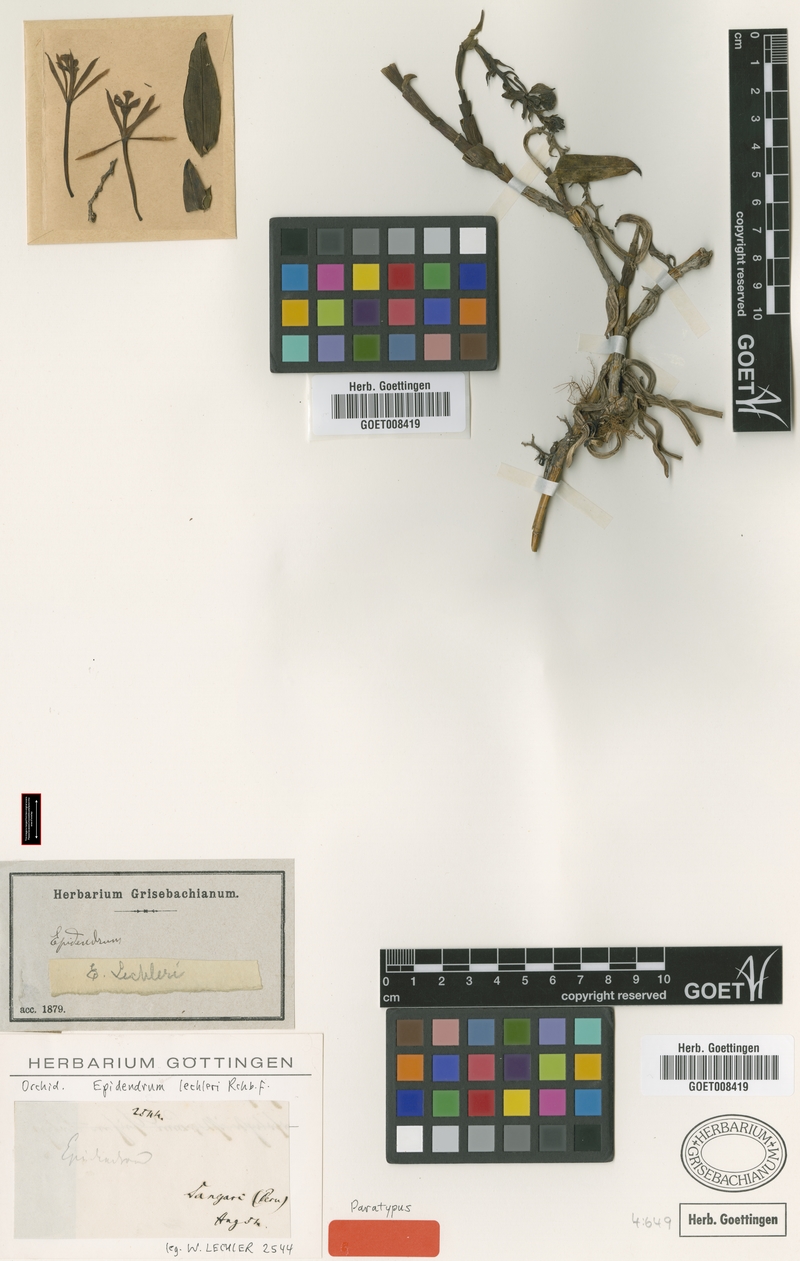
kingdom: Plantae
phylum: Tracheophyta
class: Liliopsida
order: Asparagales
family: Orchidaceae
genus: Epidendrum
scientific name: Epidendrum lechleri
